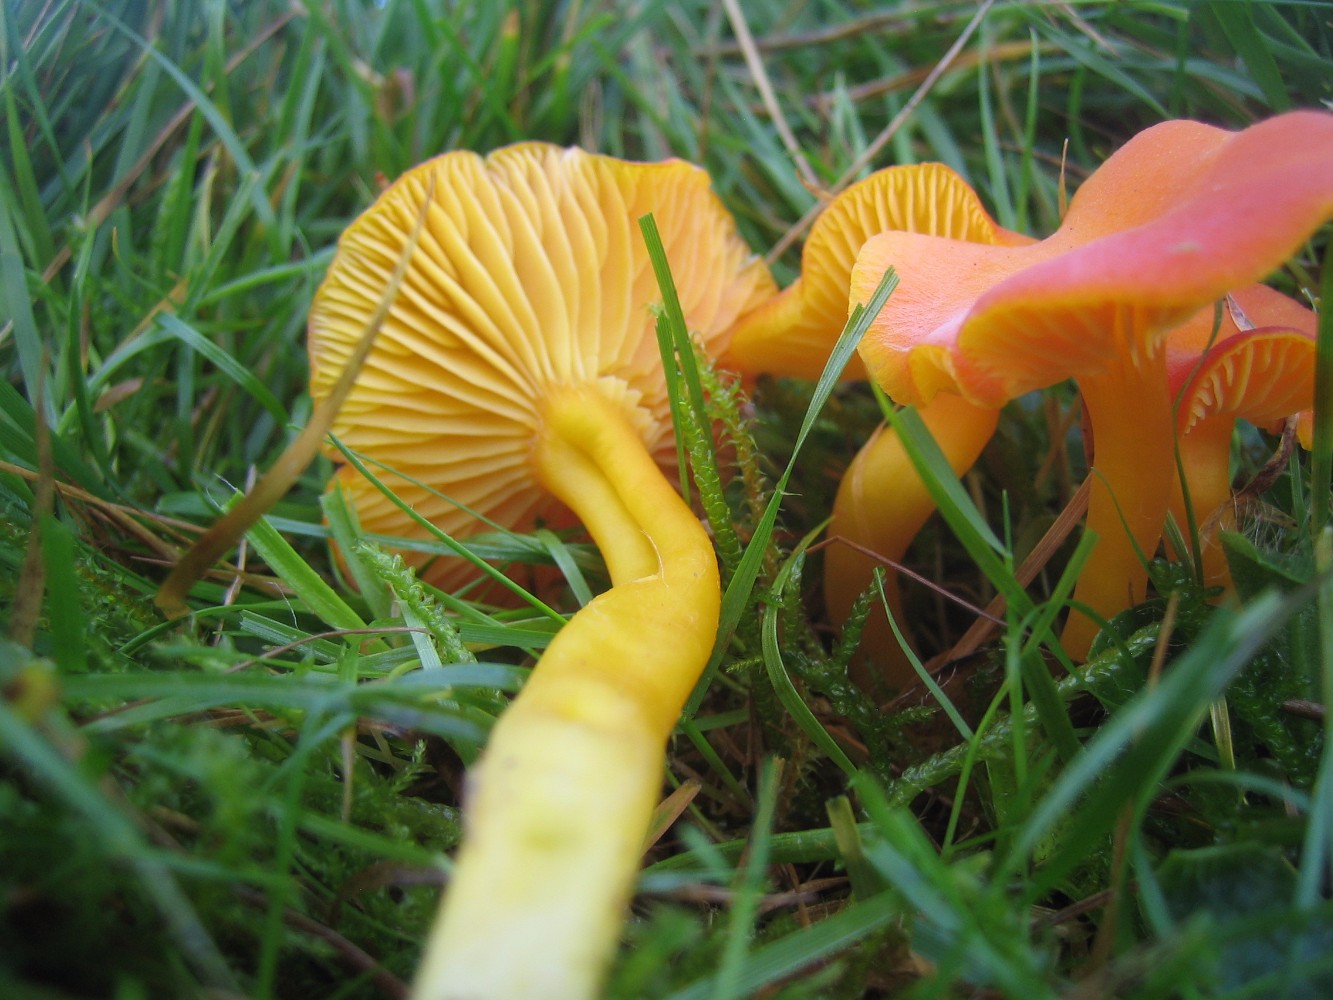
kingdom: Fungi
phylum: Basidiomycota
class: Agaricomycetes
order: Agaricales
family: Hygrophoraceae
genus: Hygrocybe
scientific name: Hygrocybe reidii
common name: honning-vokshat
